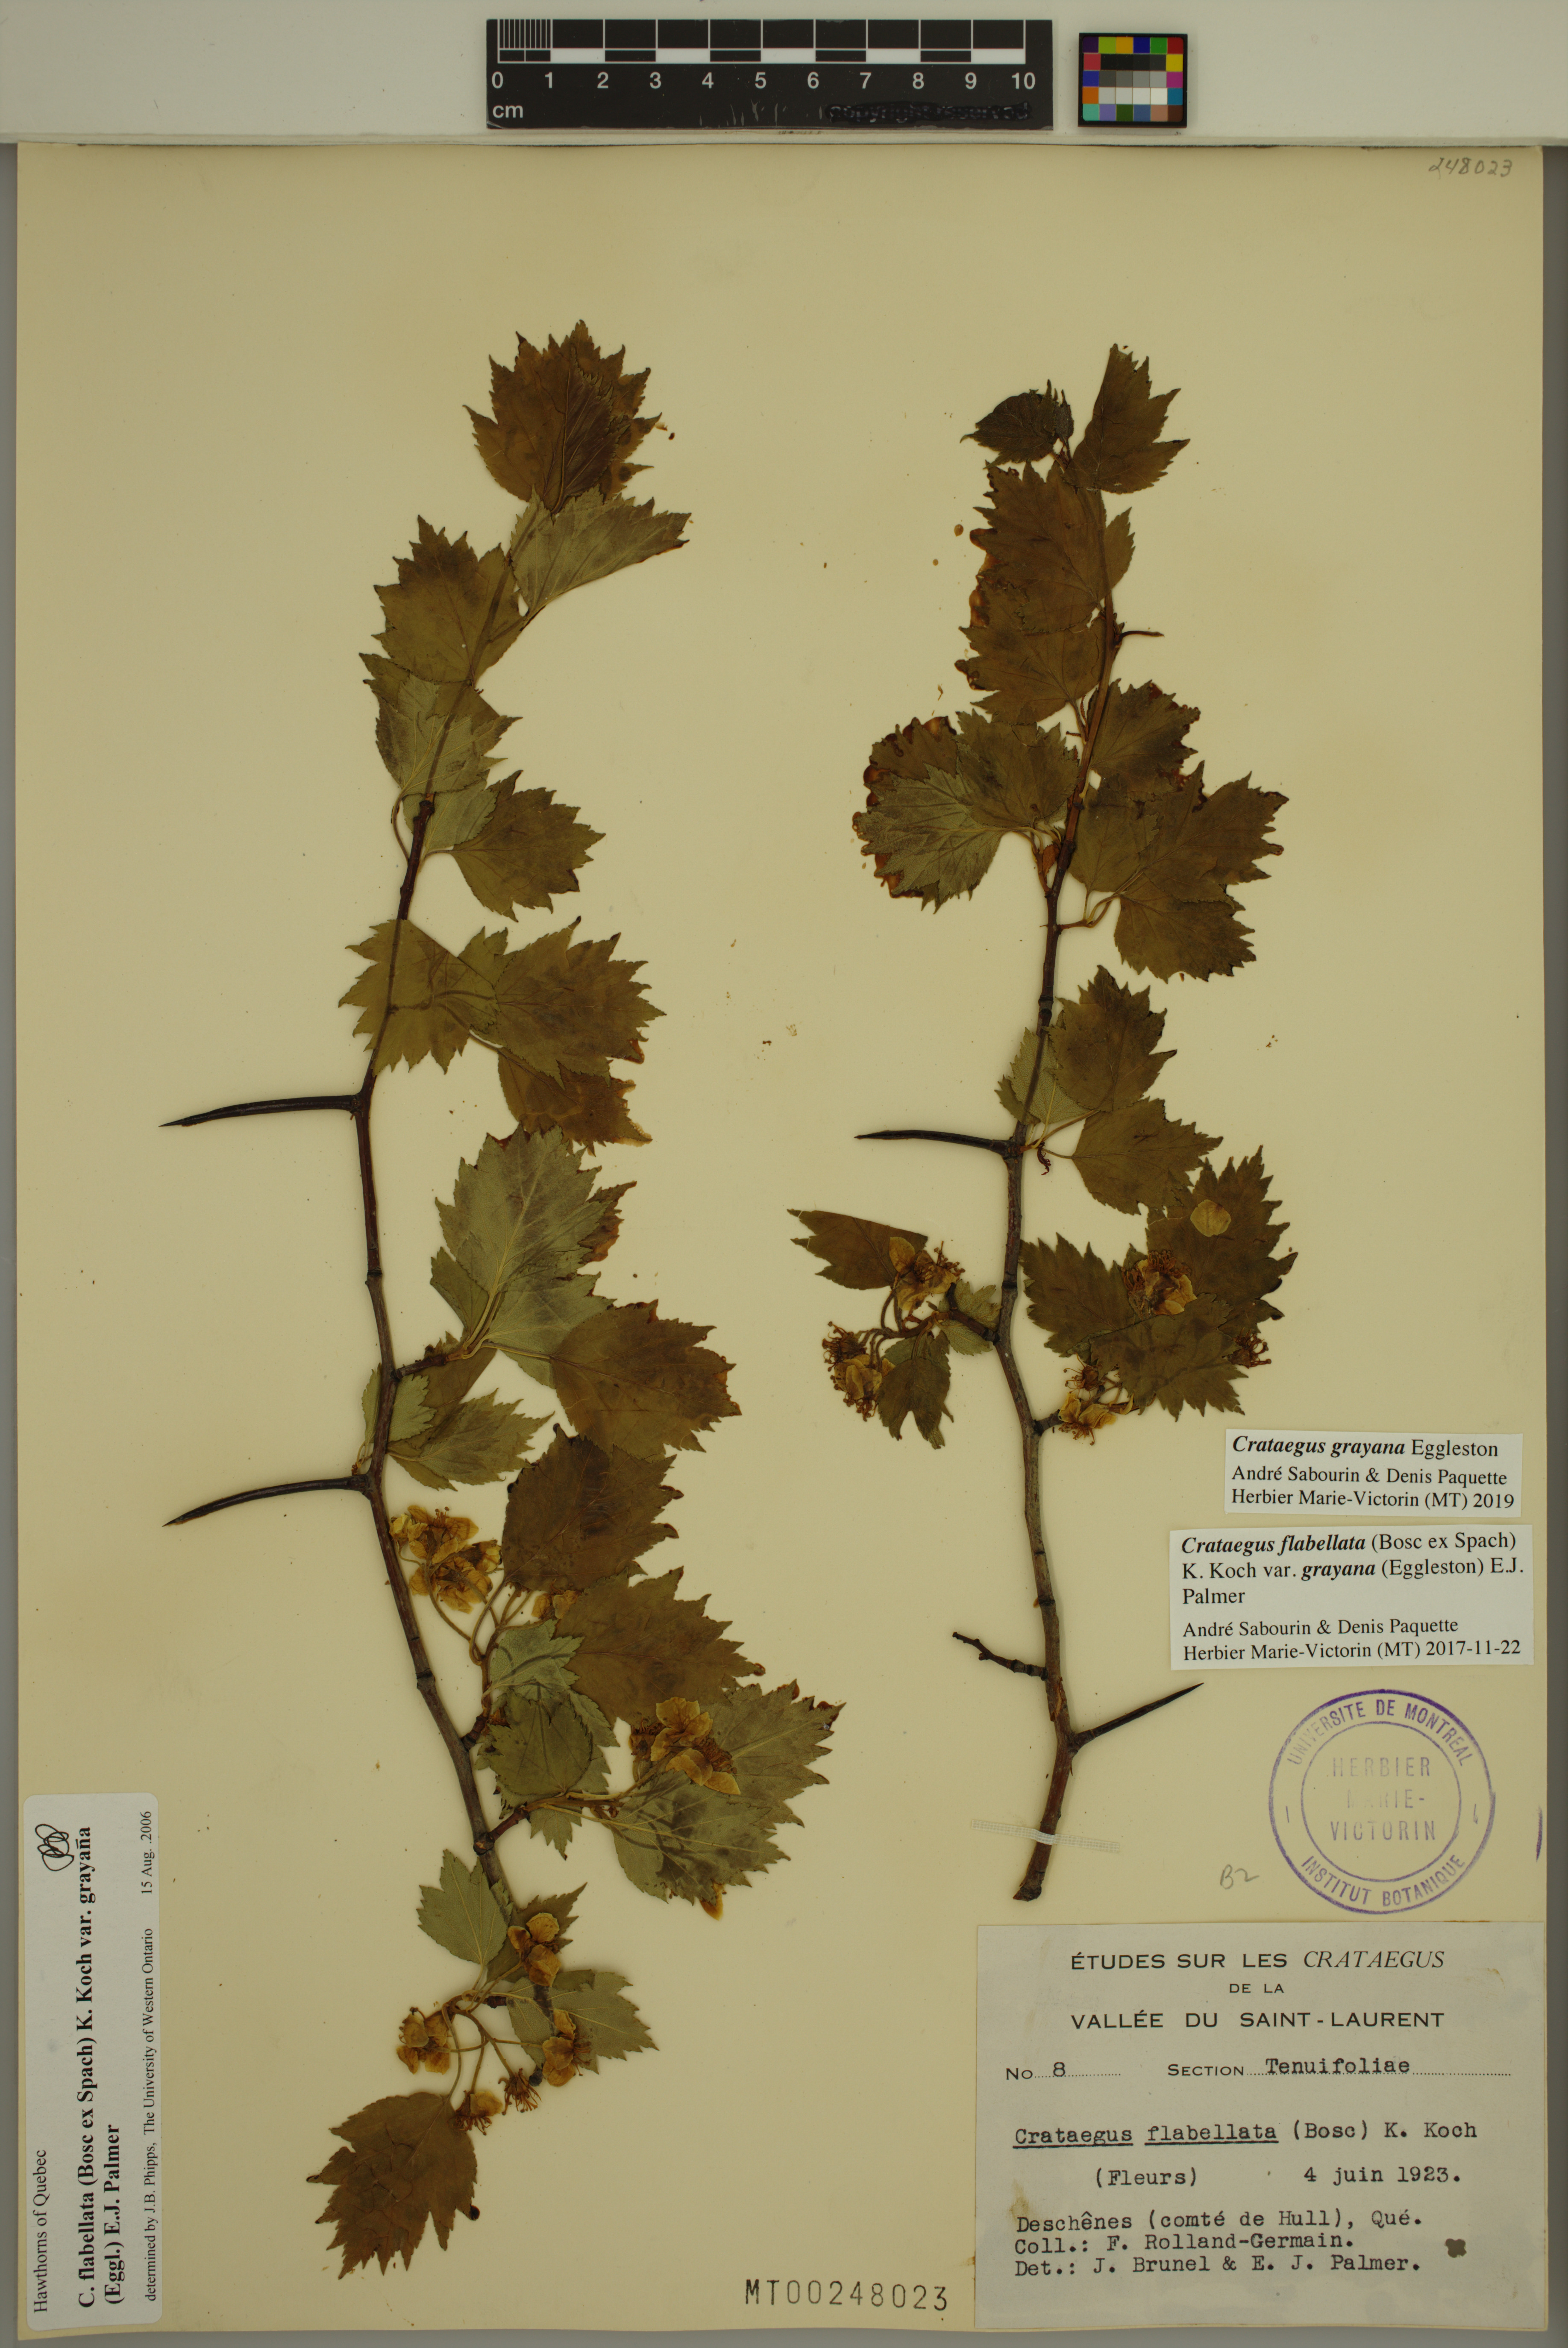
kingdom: Plantae
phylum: Tracheophyta
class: Magnoliopsida
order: Rosales
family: Rosaceae
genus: Crataegus
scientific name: Crataegus schuettei
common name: Schuette's hawthorn
